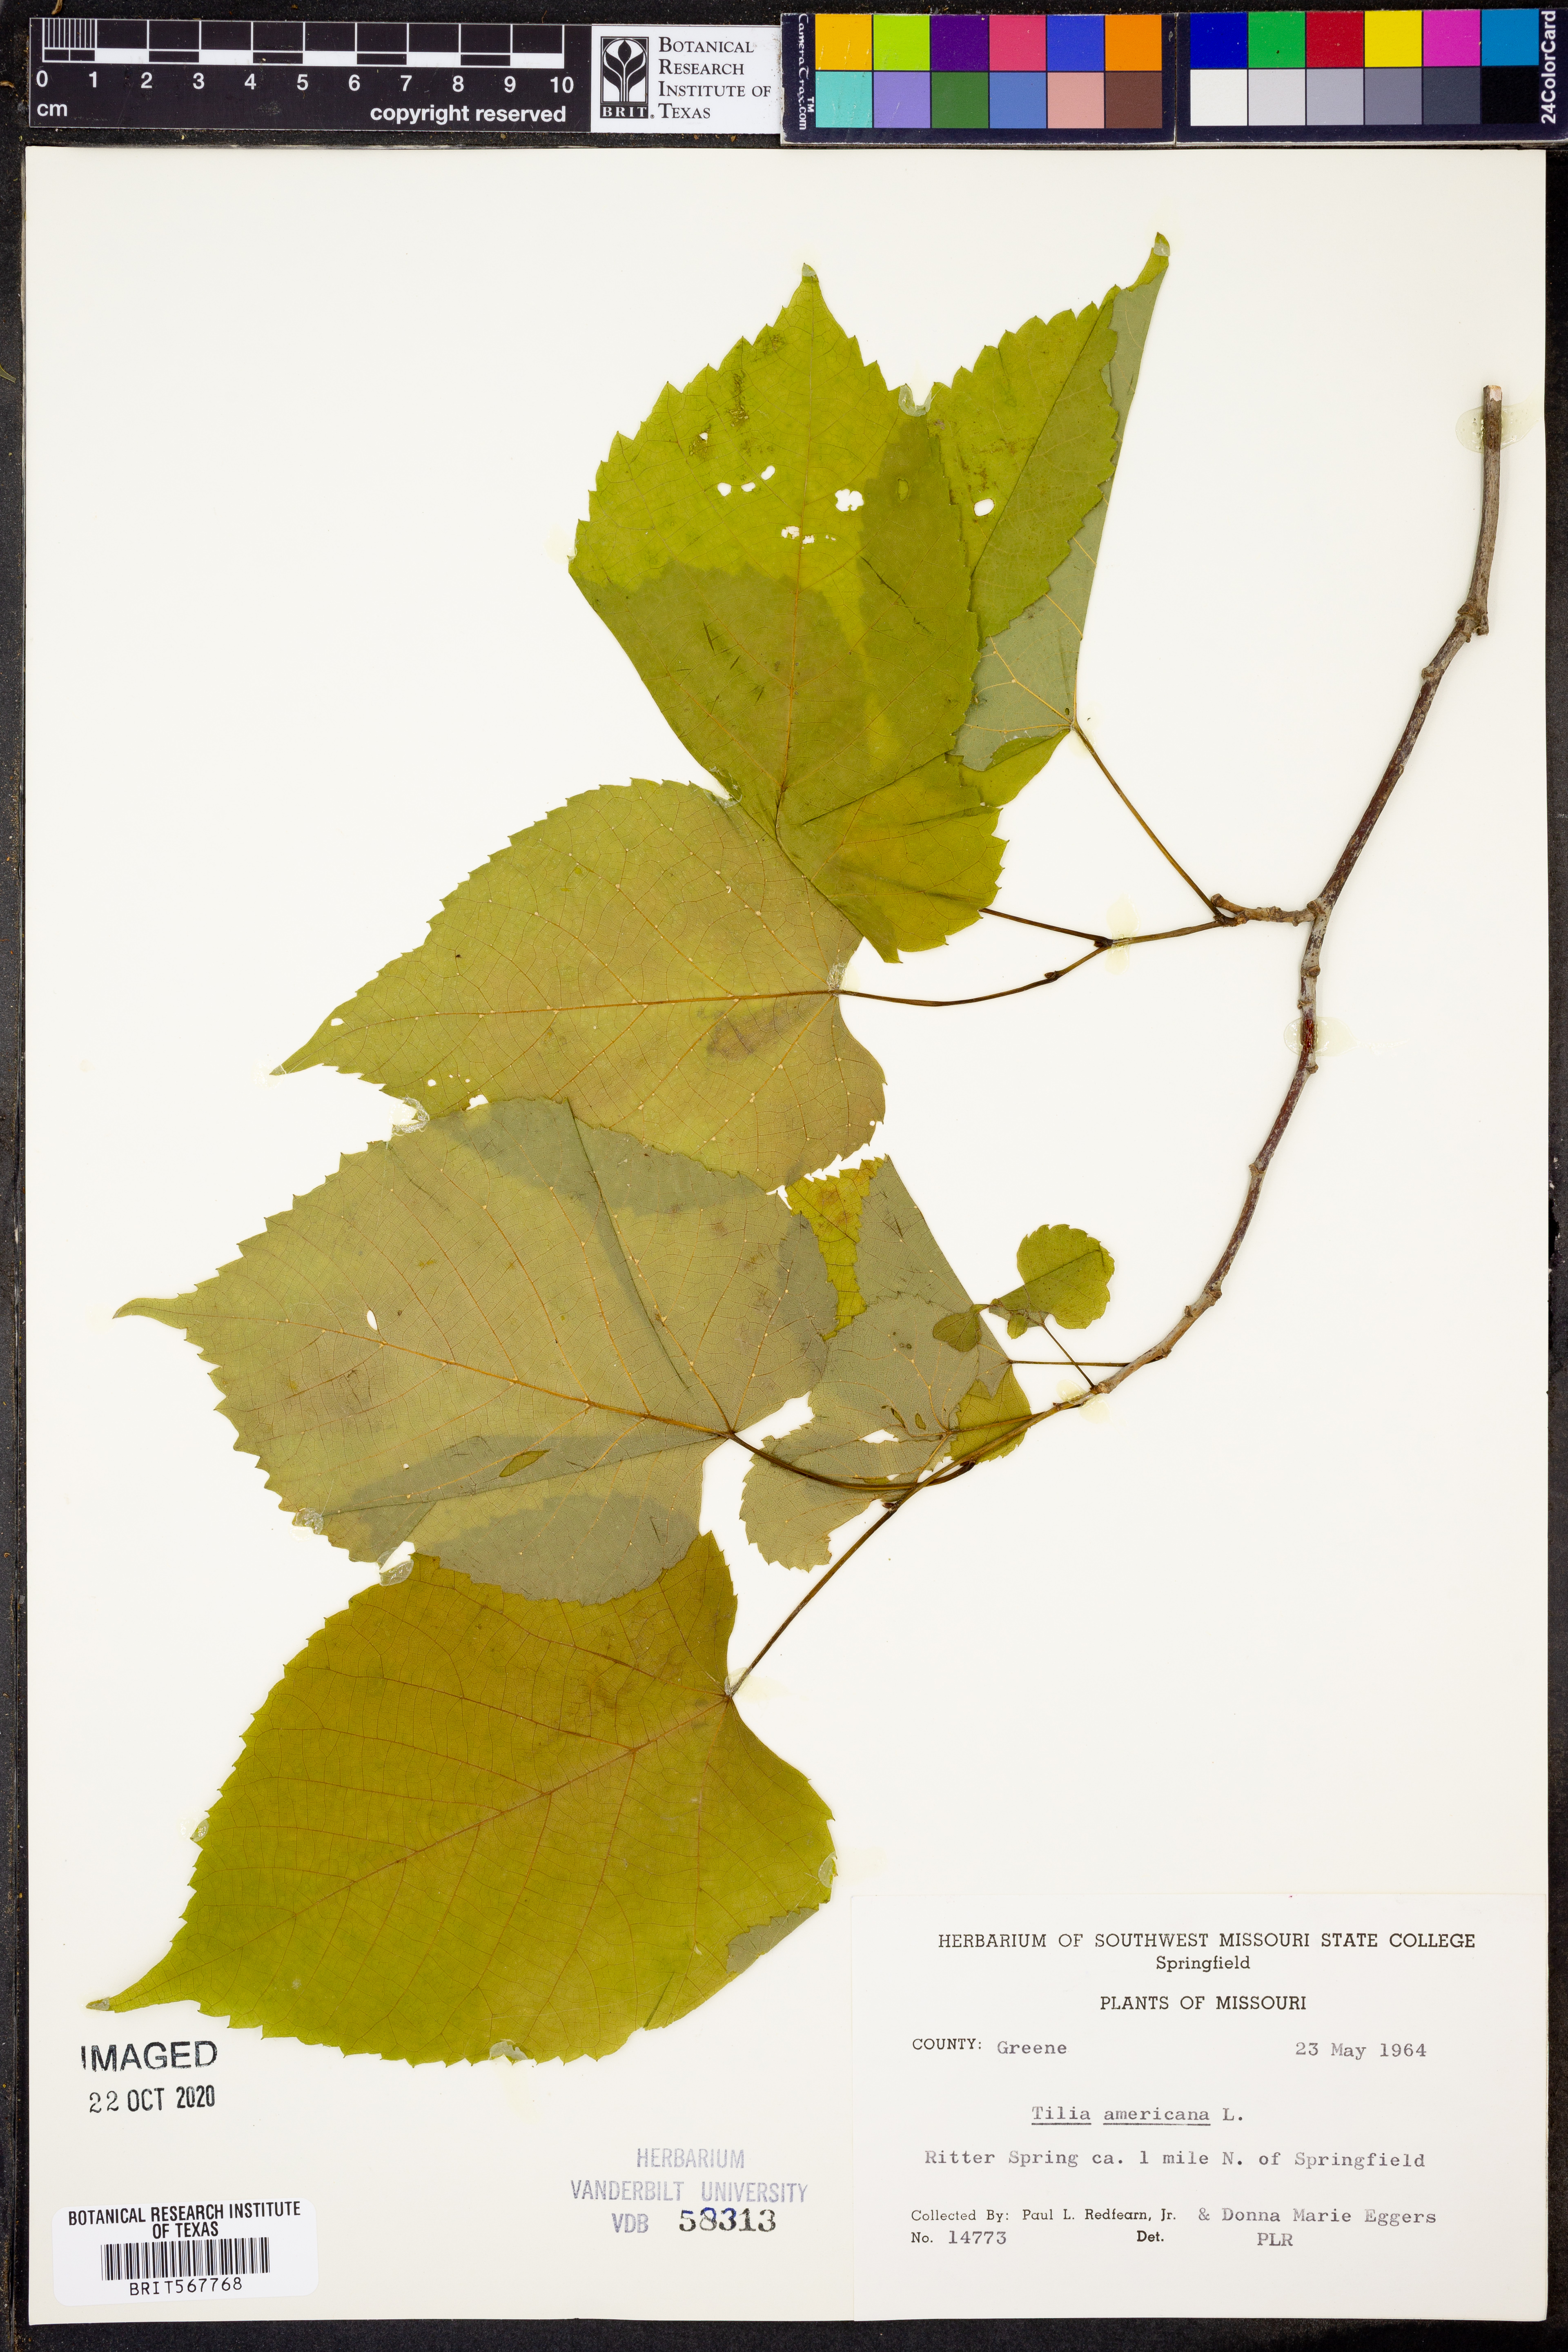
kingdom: Plantae
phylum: Tracheophyta
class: Magnoliopsida
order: Malvales
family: Malvaceae
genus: Tilia
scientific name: Tilia americana
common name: Basswood
